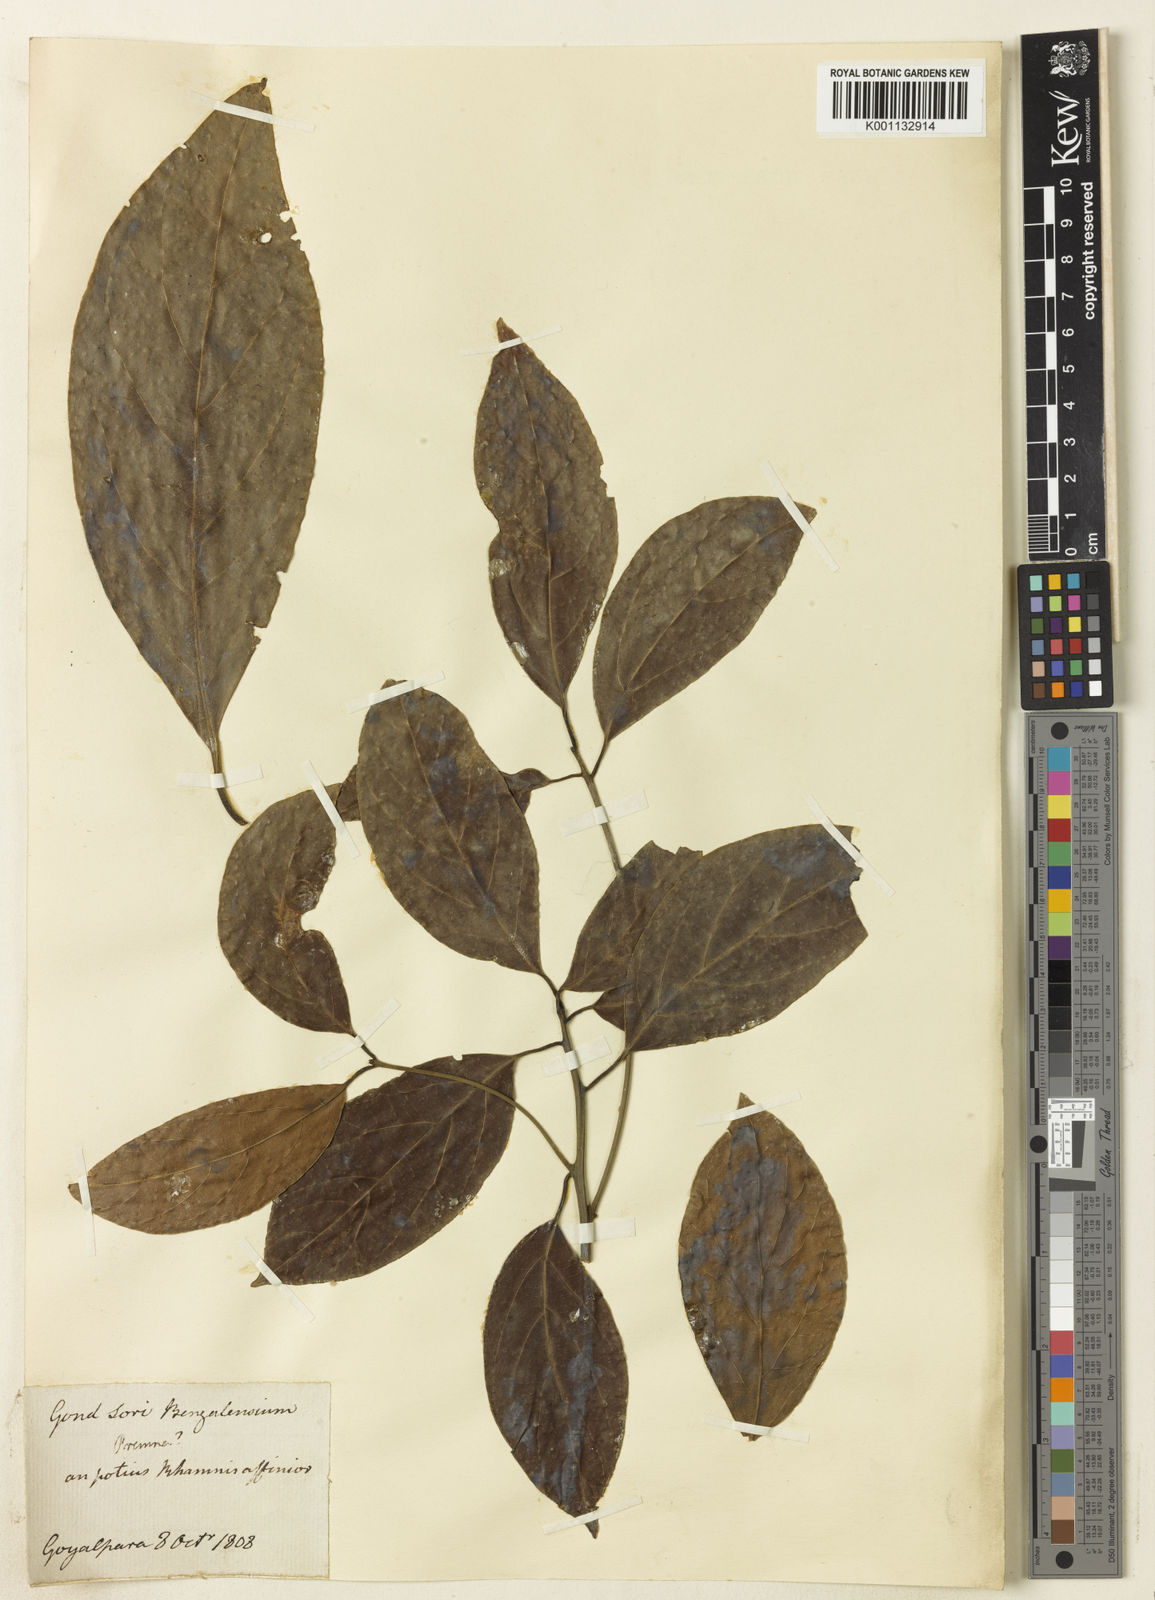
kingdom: Plantae
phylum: Tracheophyta
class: Magnoliopsida
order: Laurales
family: Lauraceae
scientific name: Lauraceae
